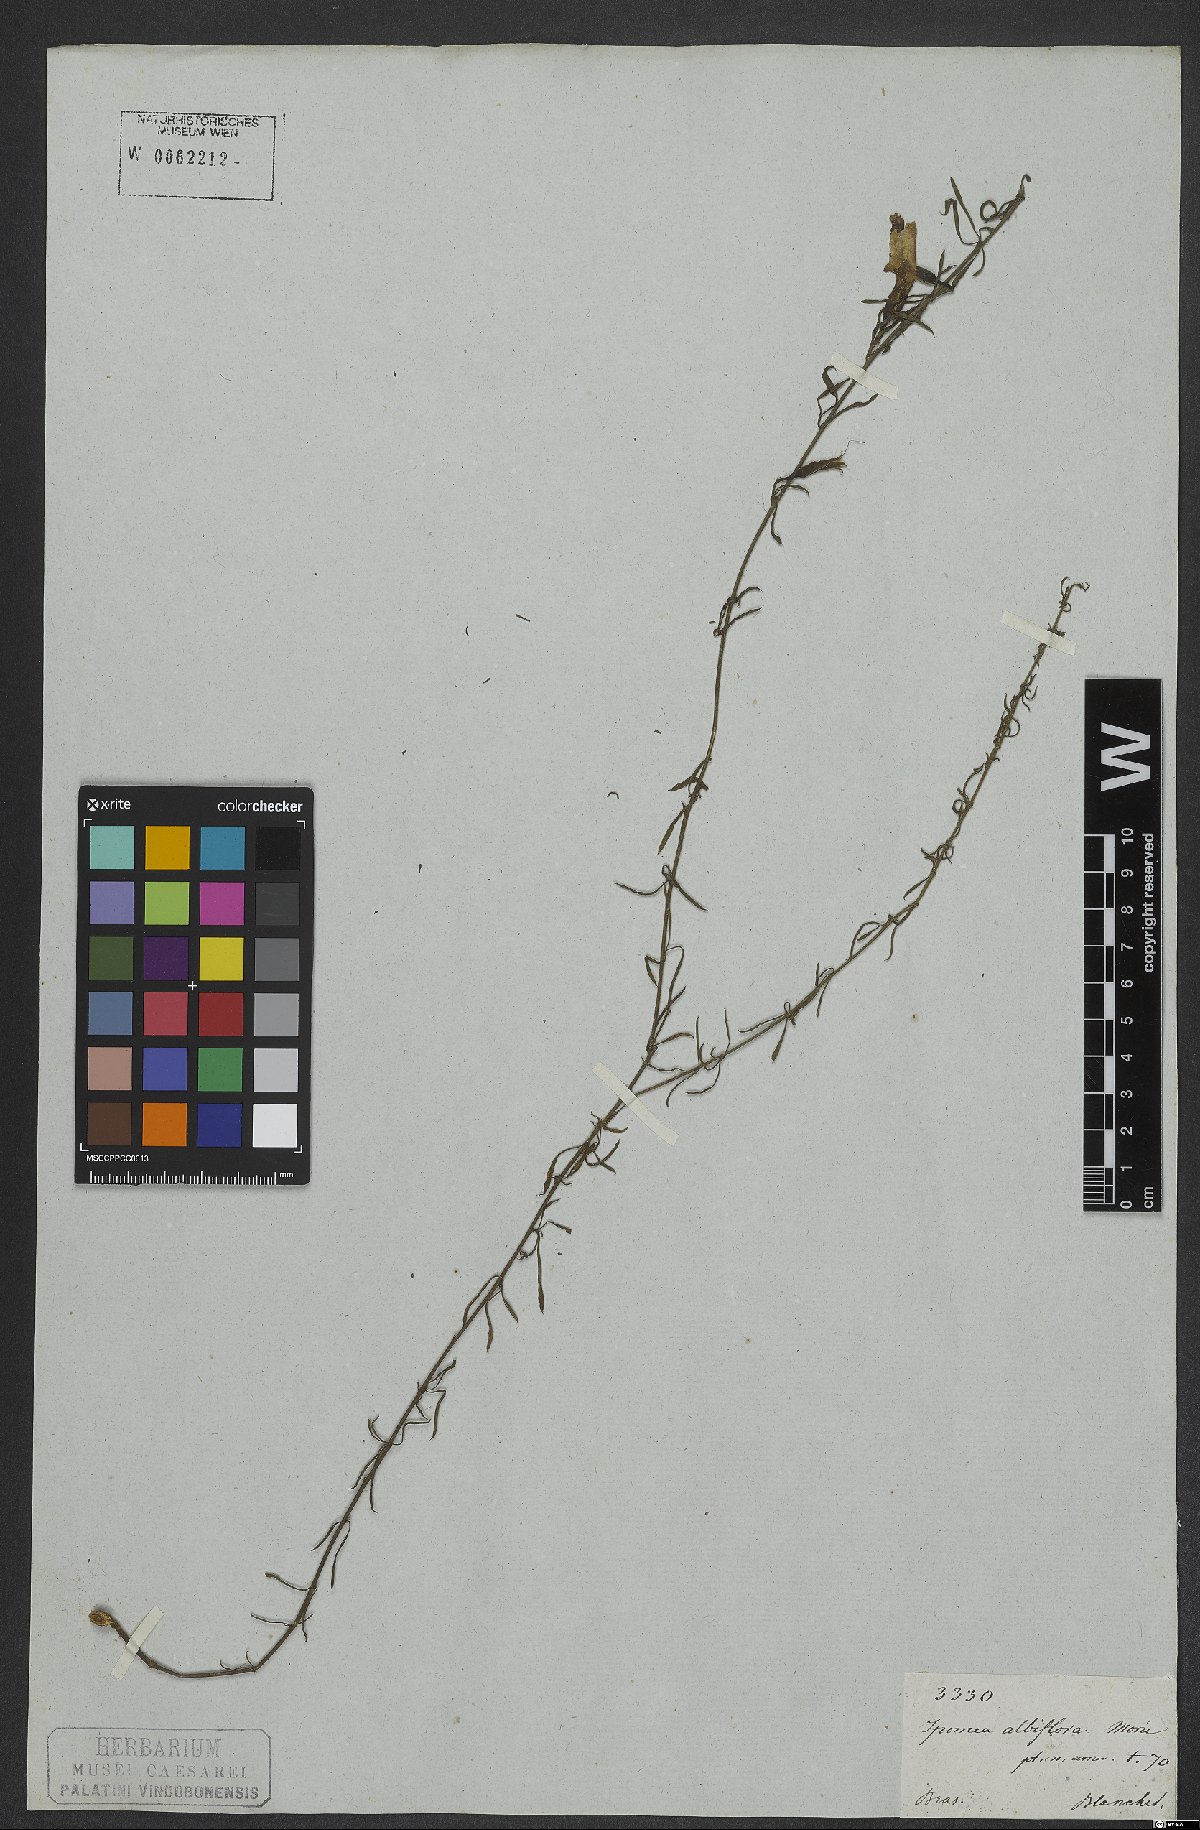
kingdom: Plantae
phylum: Tracheophyta
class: Magnoliopsida
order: Solanales
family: Convolvulaceae
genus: Distimake
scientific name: Distimake digitatus
